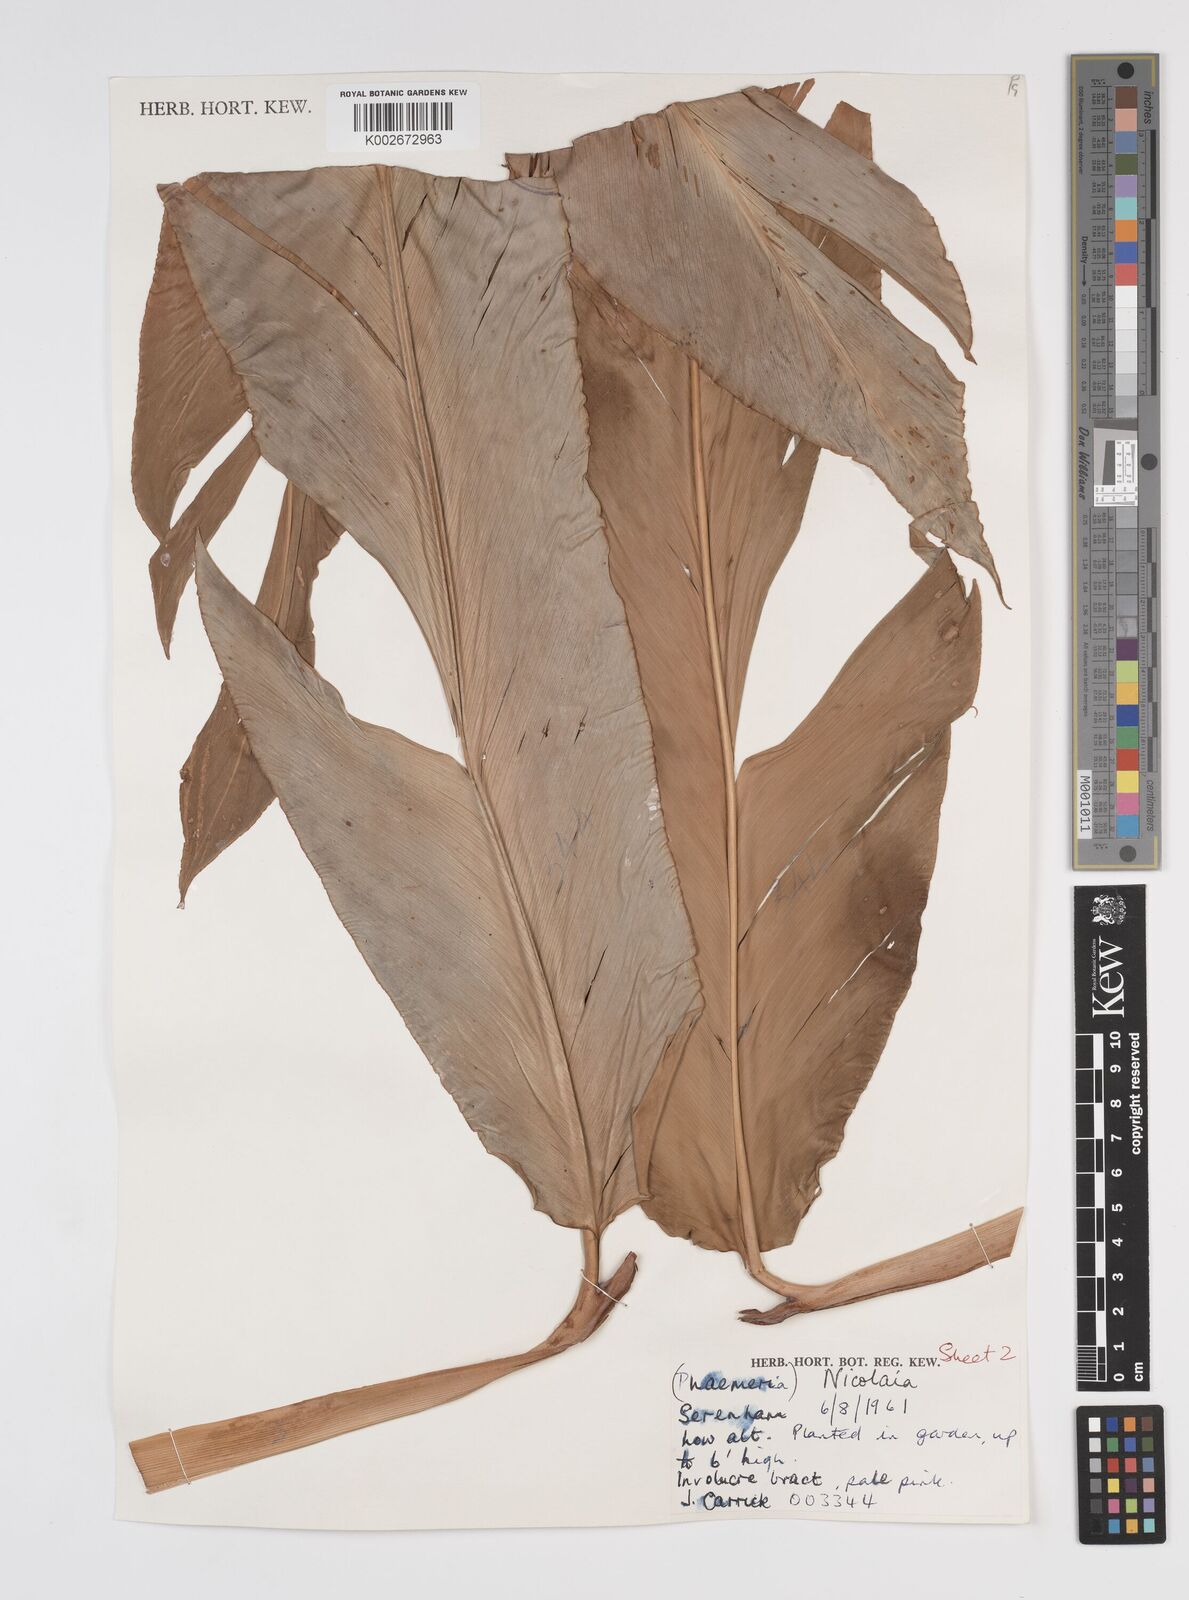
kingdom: Plantae
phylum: Tracheophyta
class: Liliopsida
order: Zingiberales
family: Zingiberaceae
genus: Etlingera
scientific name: Etlingera
